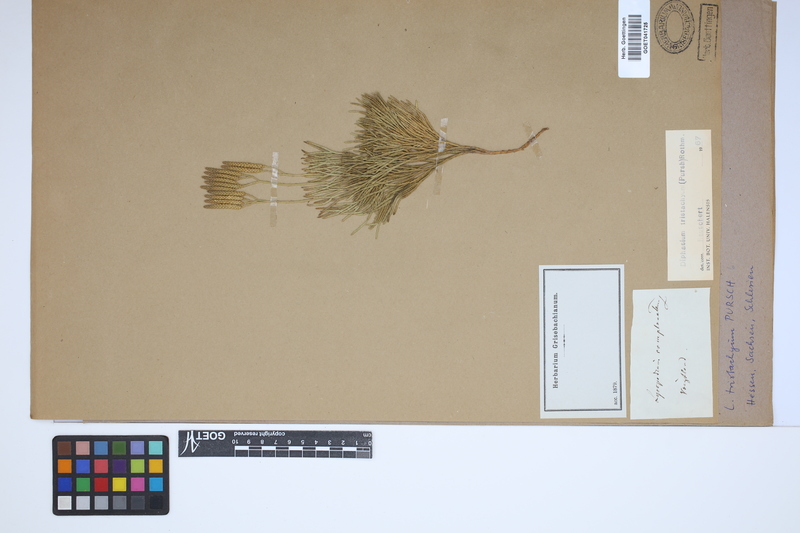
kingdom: Plantae
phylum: Tracheophyta
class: Lycopodiopsida
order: Lycopodiales
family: Lycopodiaceae
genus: Diphasiastrum
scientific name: Diphasiastrum tristachyum
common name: Blue ground-cedar
